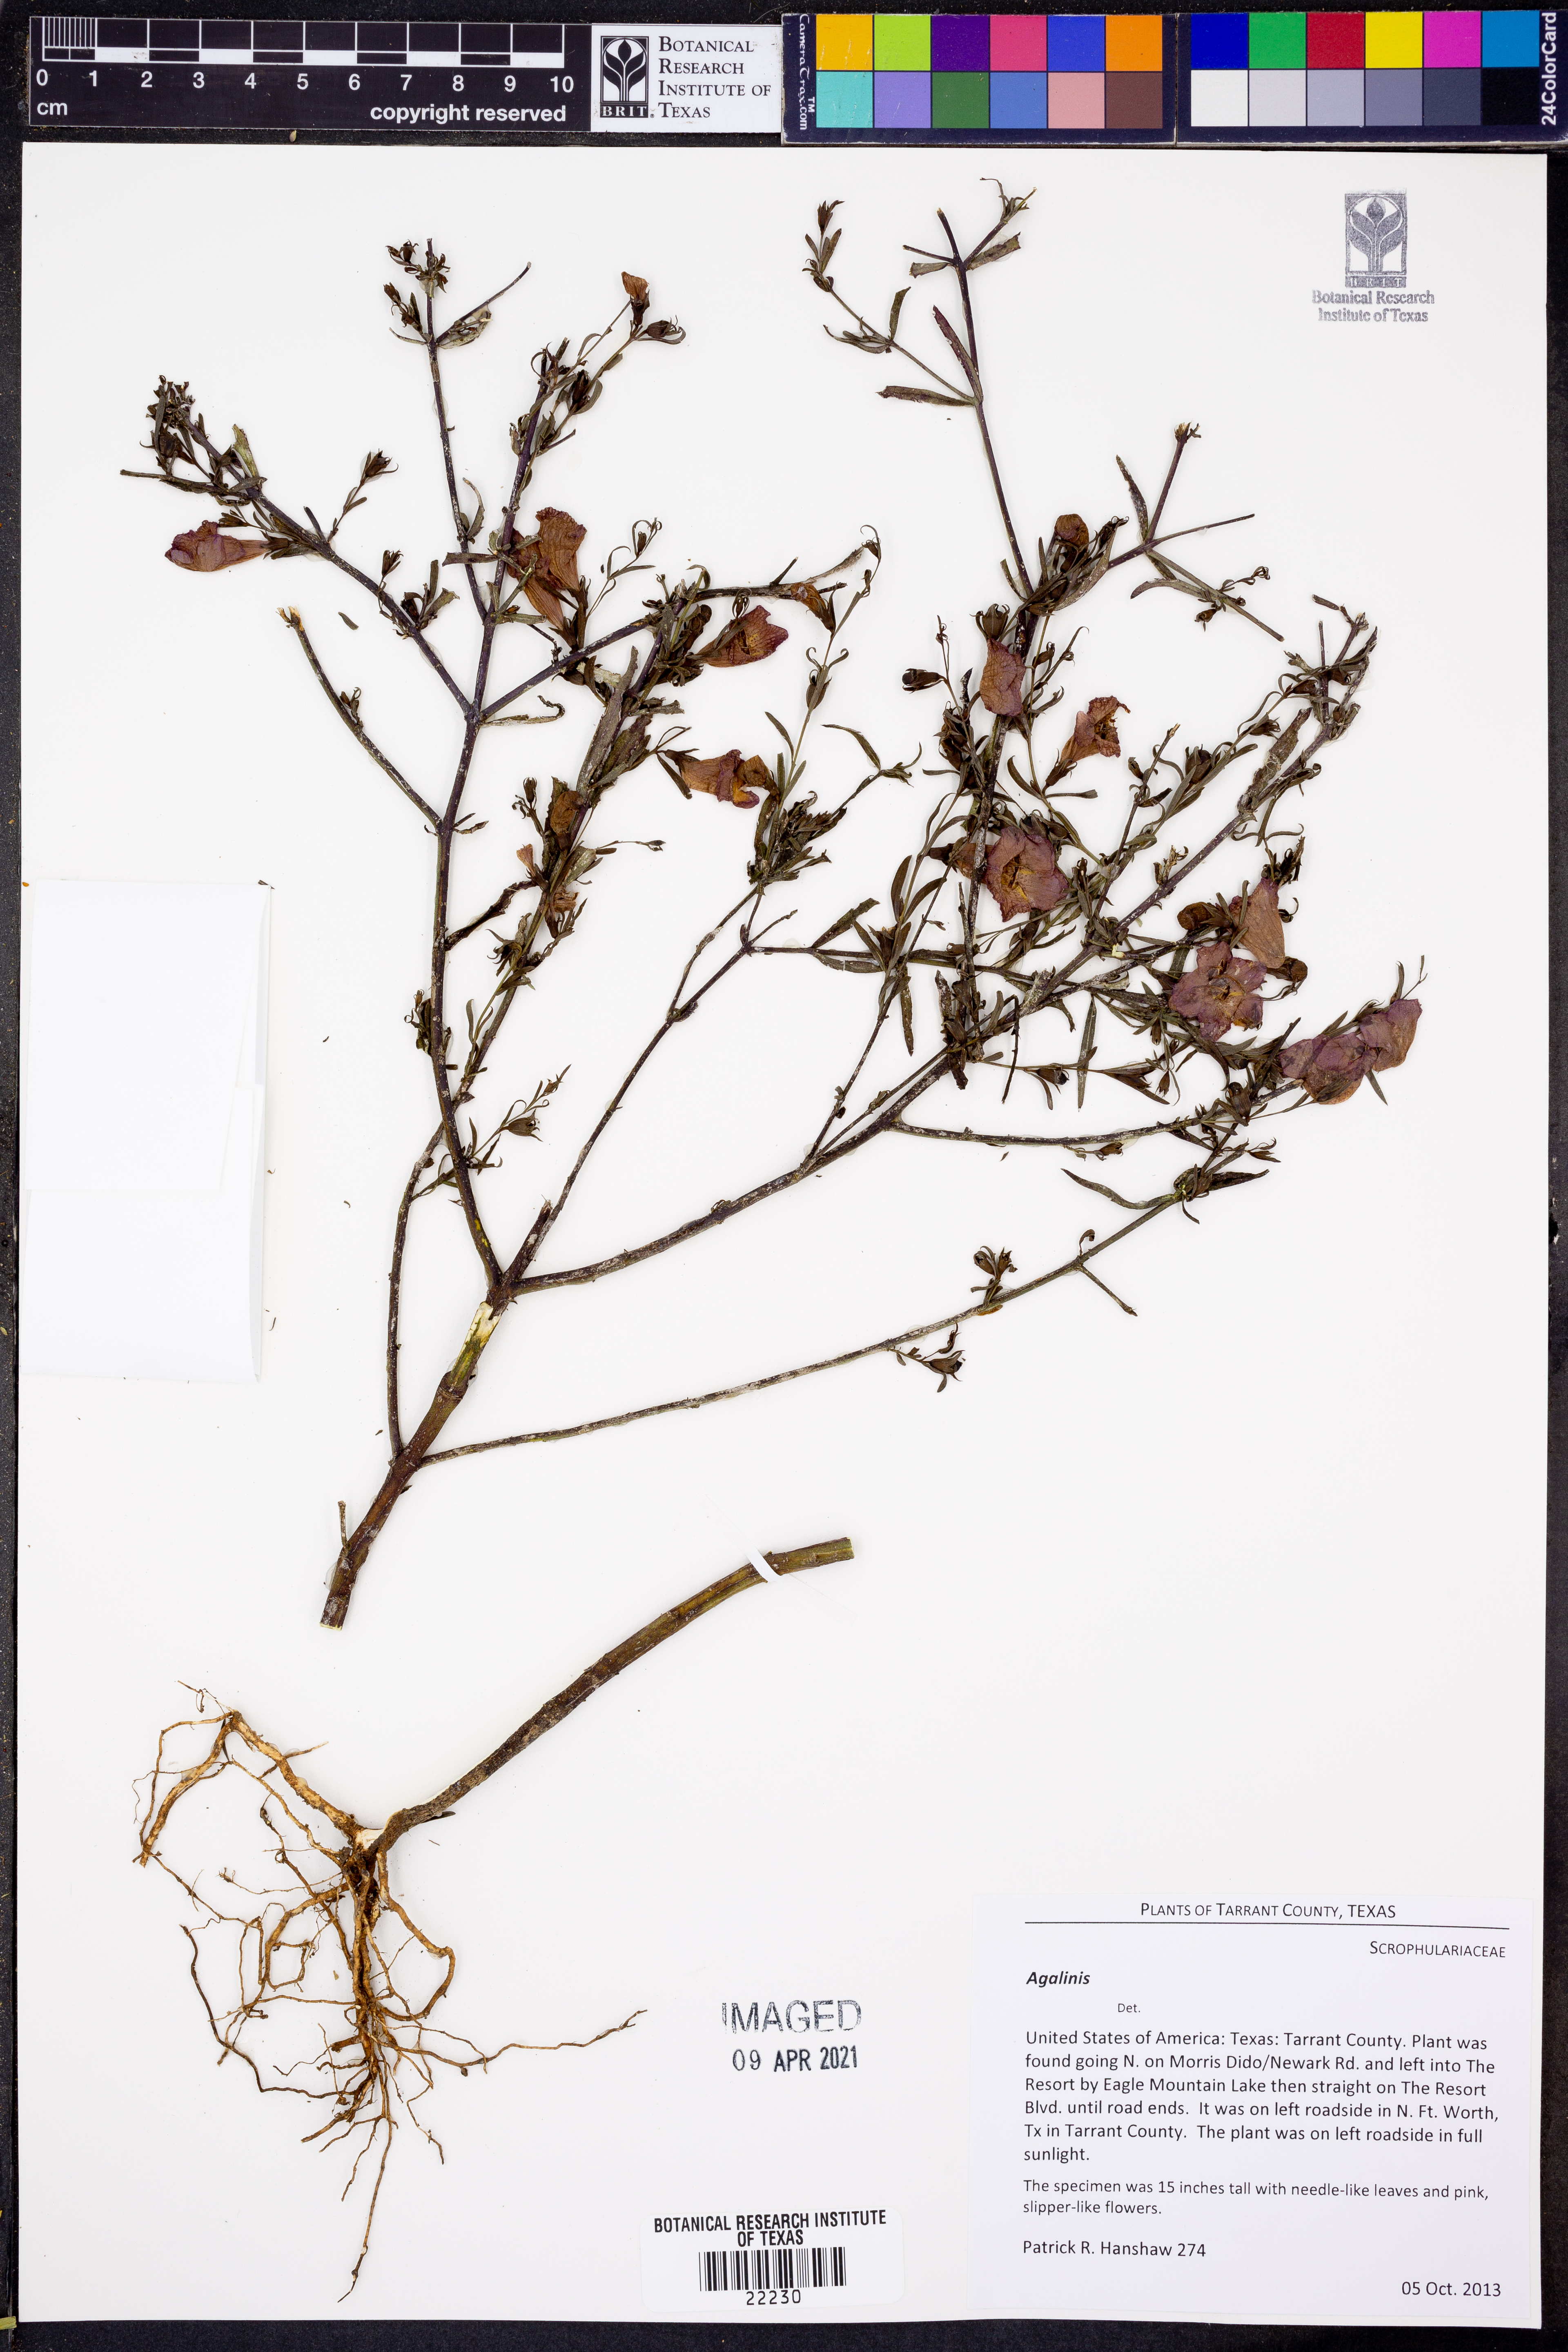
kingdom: Plantae
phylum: Tracheophyta
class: Magnoliopsida
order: Lamiales
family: Orobanchaceae
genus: Agalinis
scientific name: Agalinis
